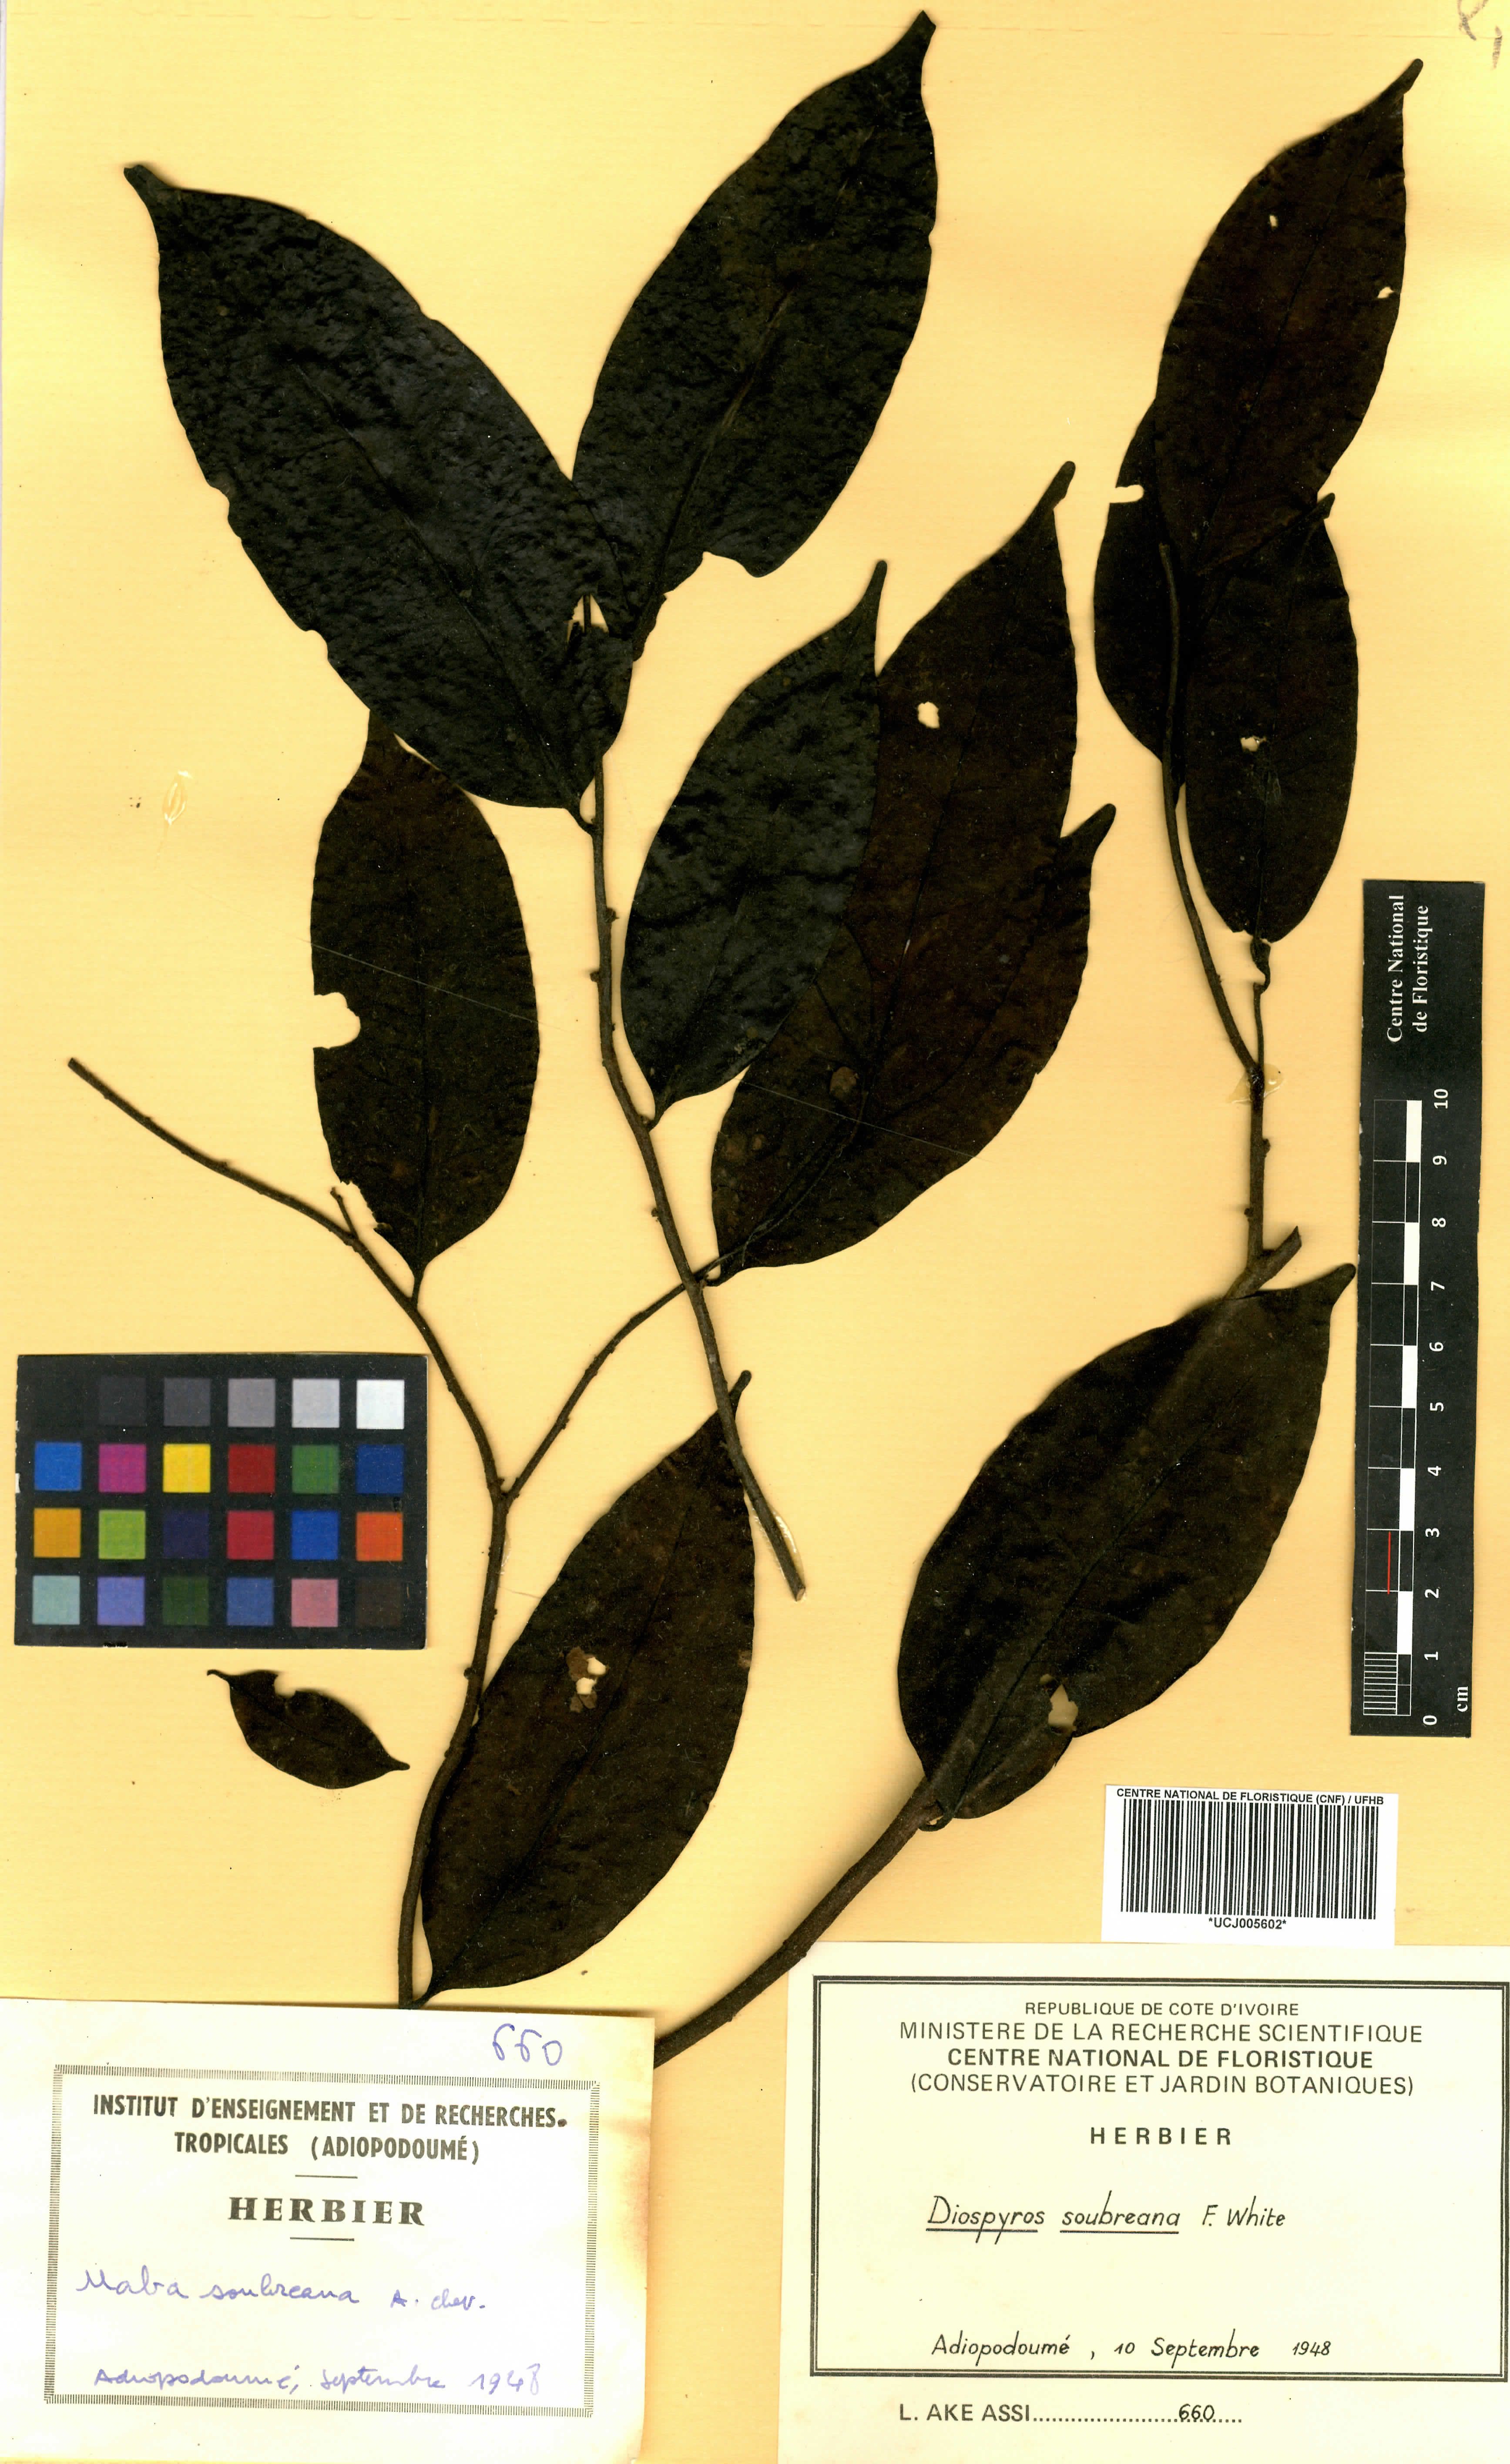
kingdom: Plantae
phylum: Tracheophyta
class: Magnoliopsida
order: Ericales
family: Ebenaceae
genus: Diospyros
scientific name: Diospyros soubreana
